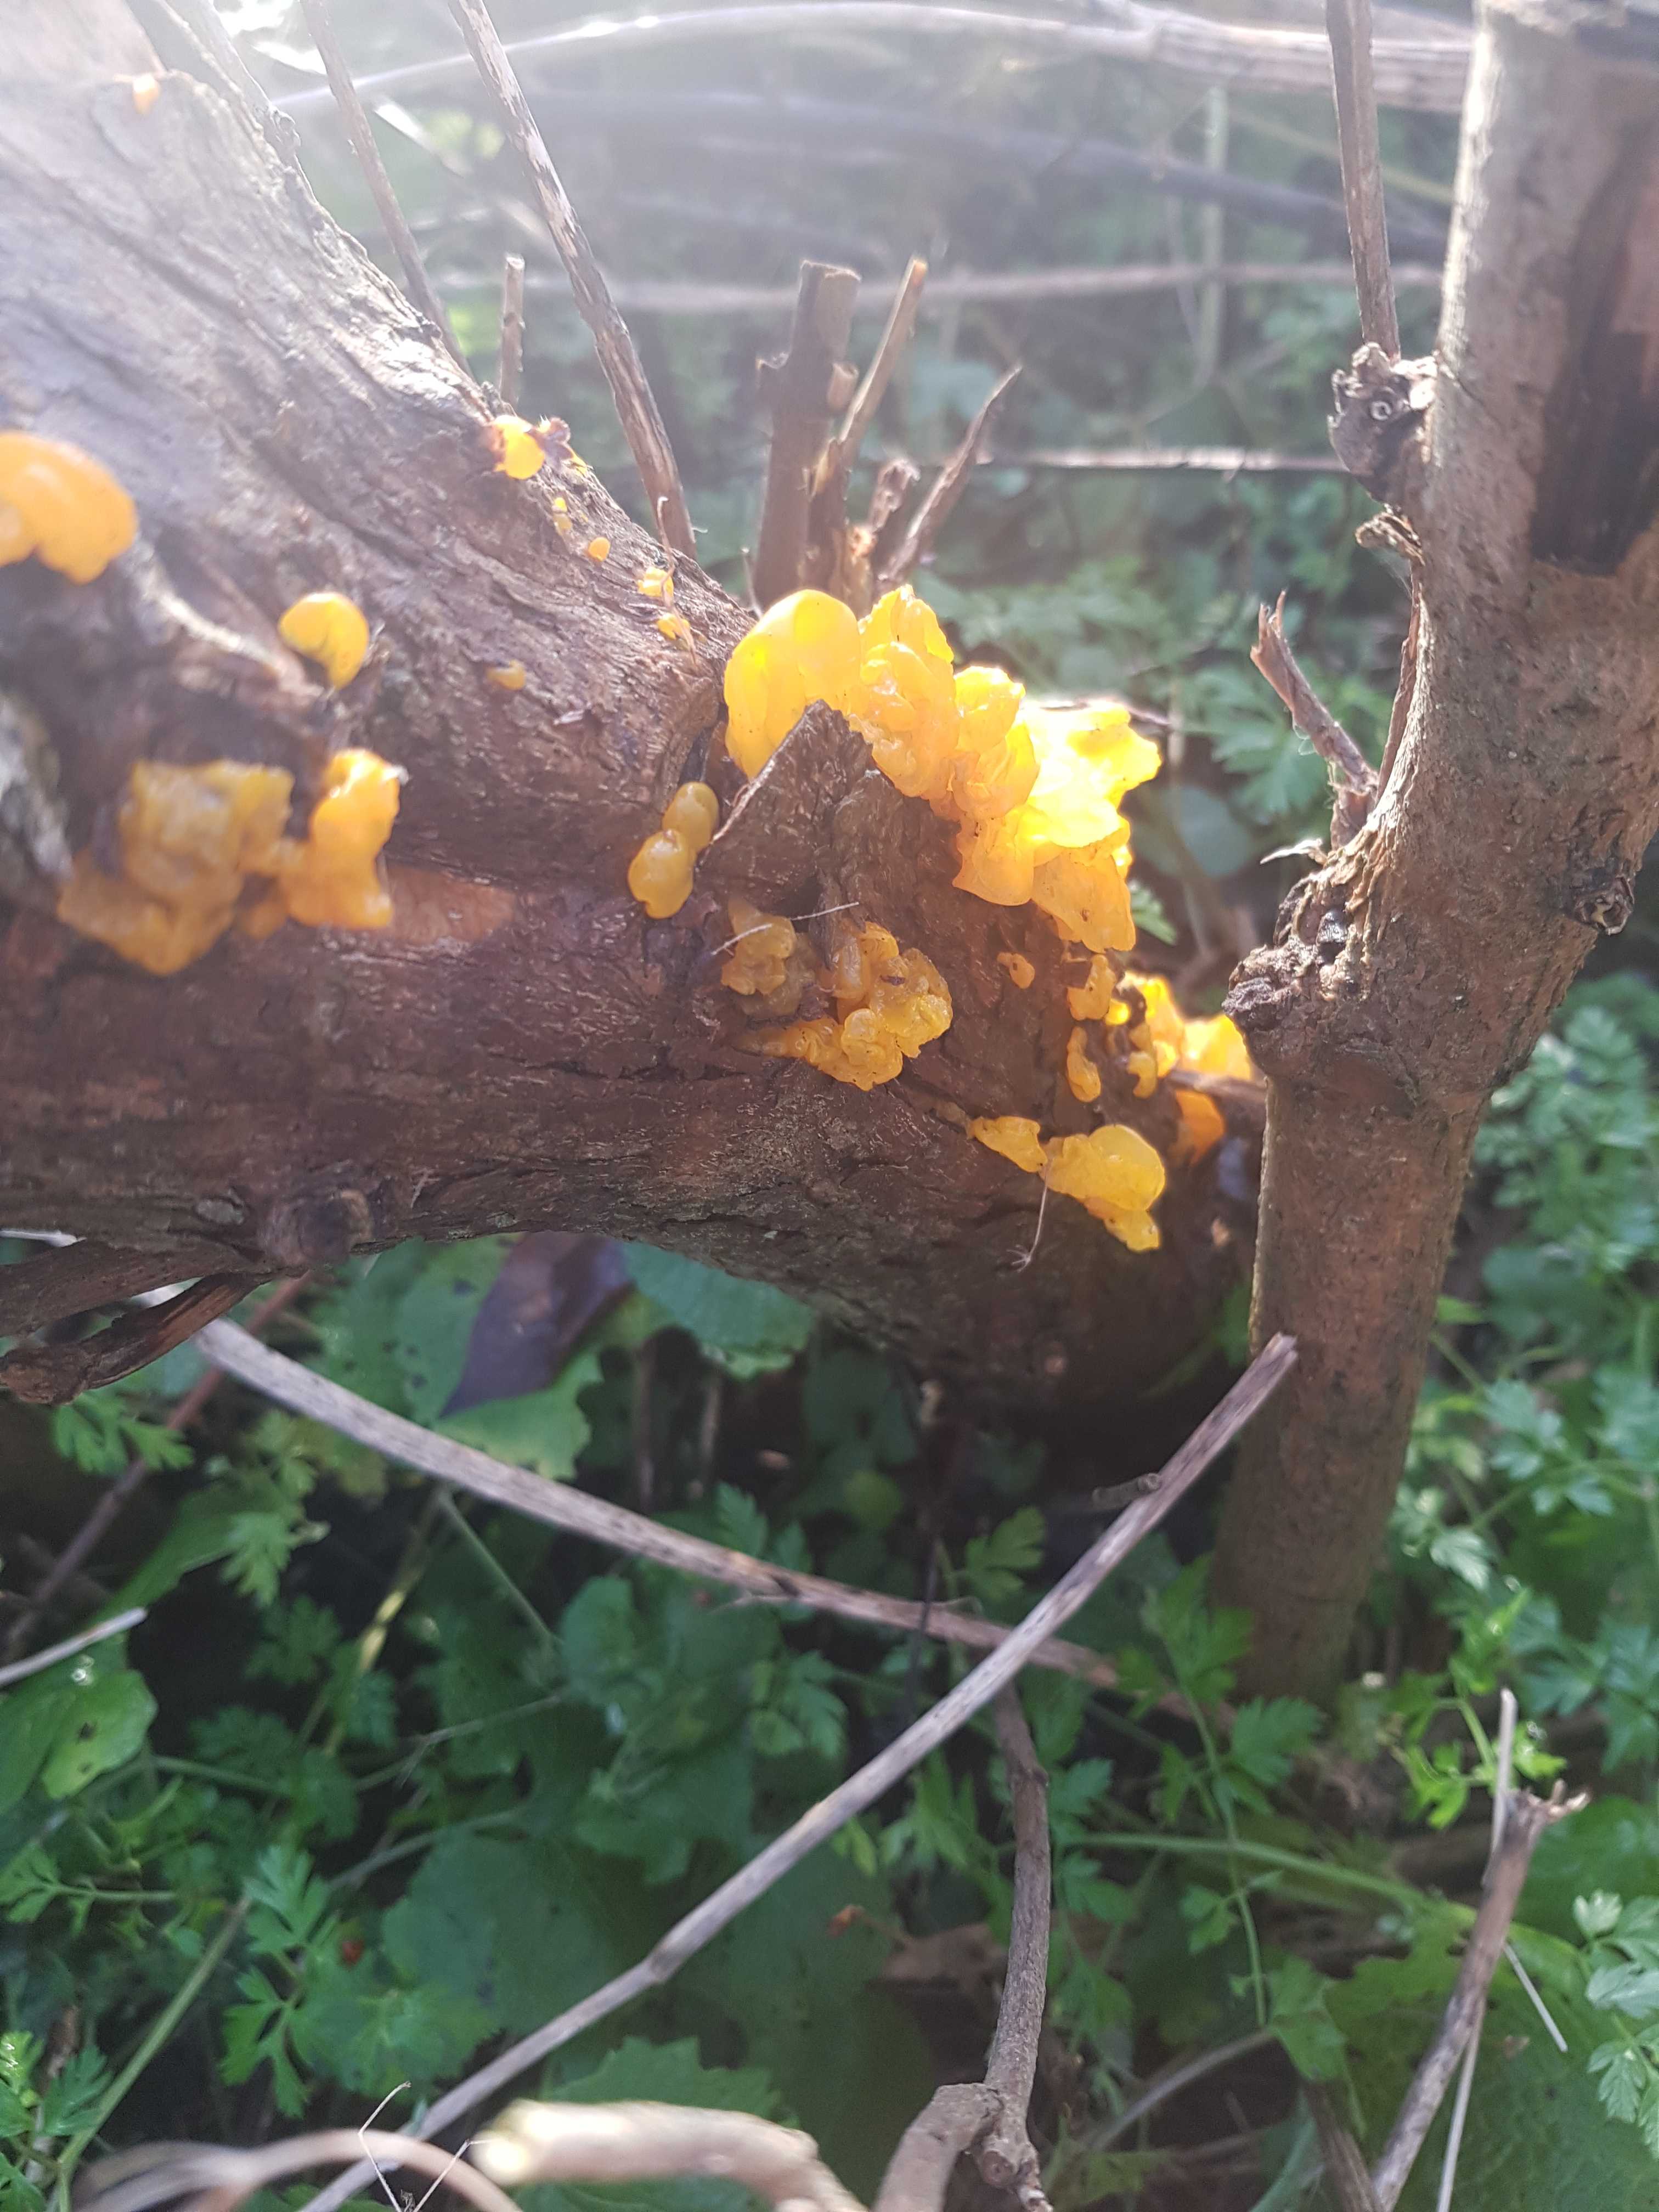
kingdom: Fungi
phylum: Basidiomycota
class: Tremellomycetes
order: Tremellales
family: Tremellaceae
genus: Tremella
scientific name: Tremella mesenterica
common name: gul bævresvamp
